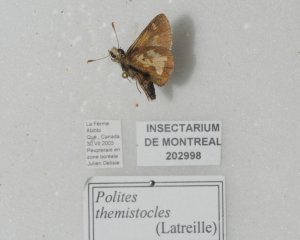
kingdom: Animalia
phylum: Arthropoda
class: Insecta
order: Lepidoptera
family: Hesperiidae
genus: Polites
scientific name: Polites coras
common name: Peck's Skipper
